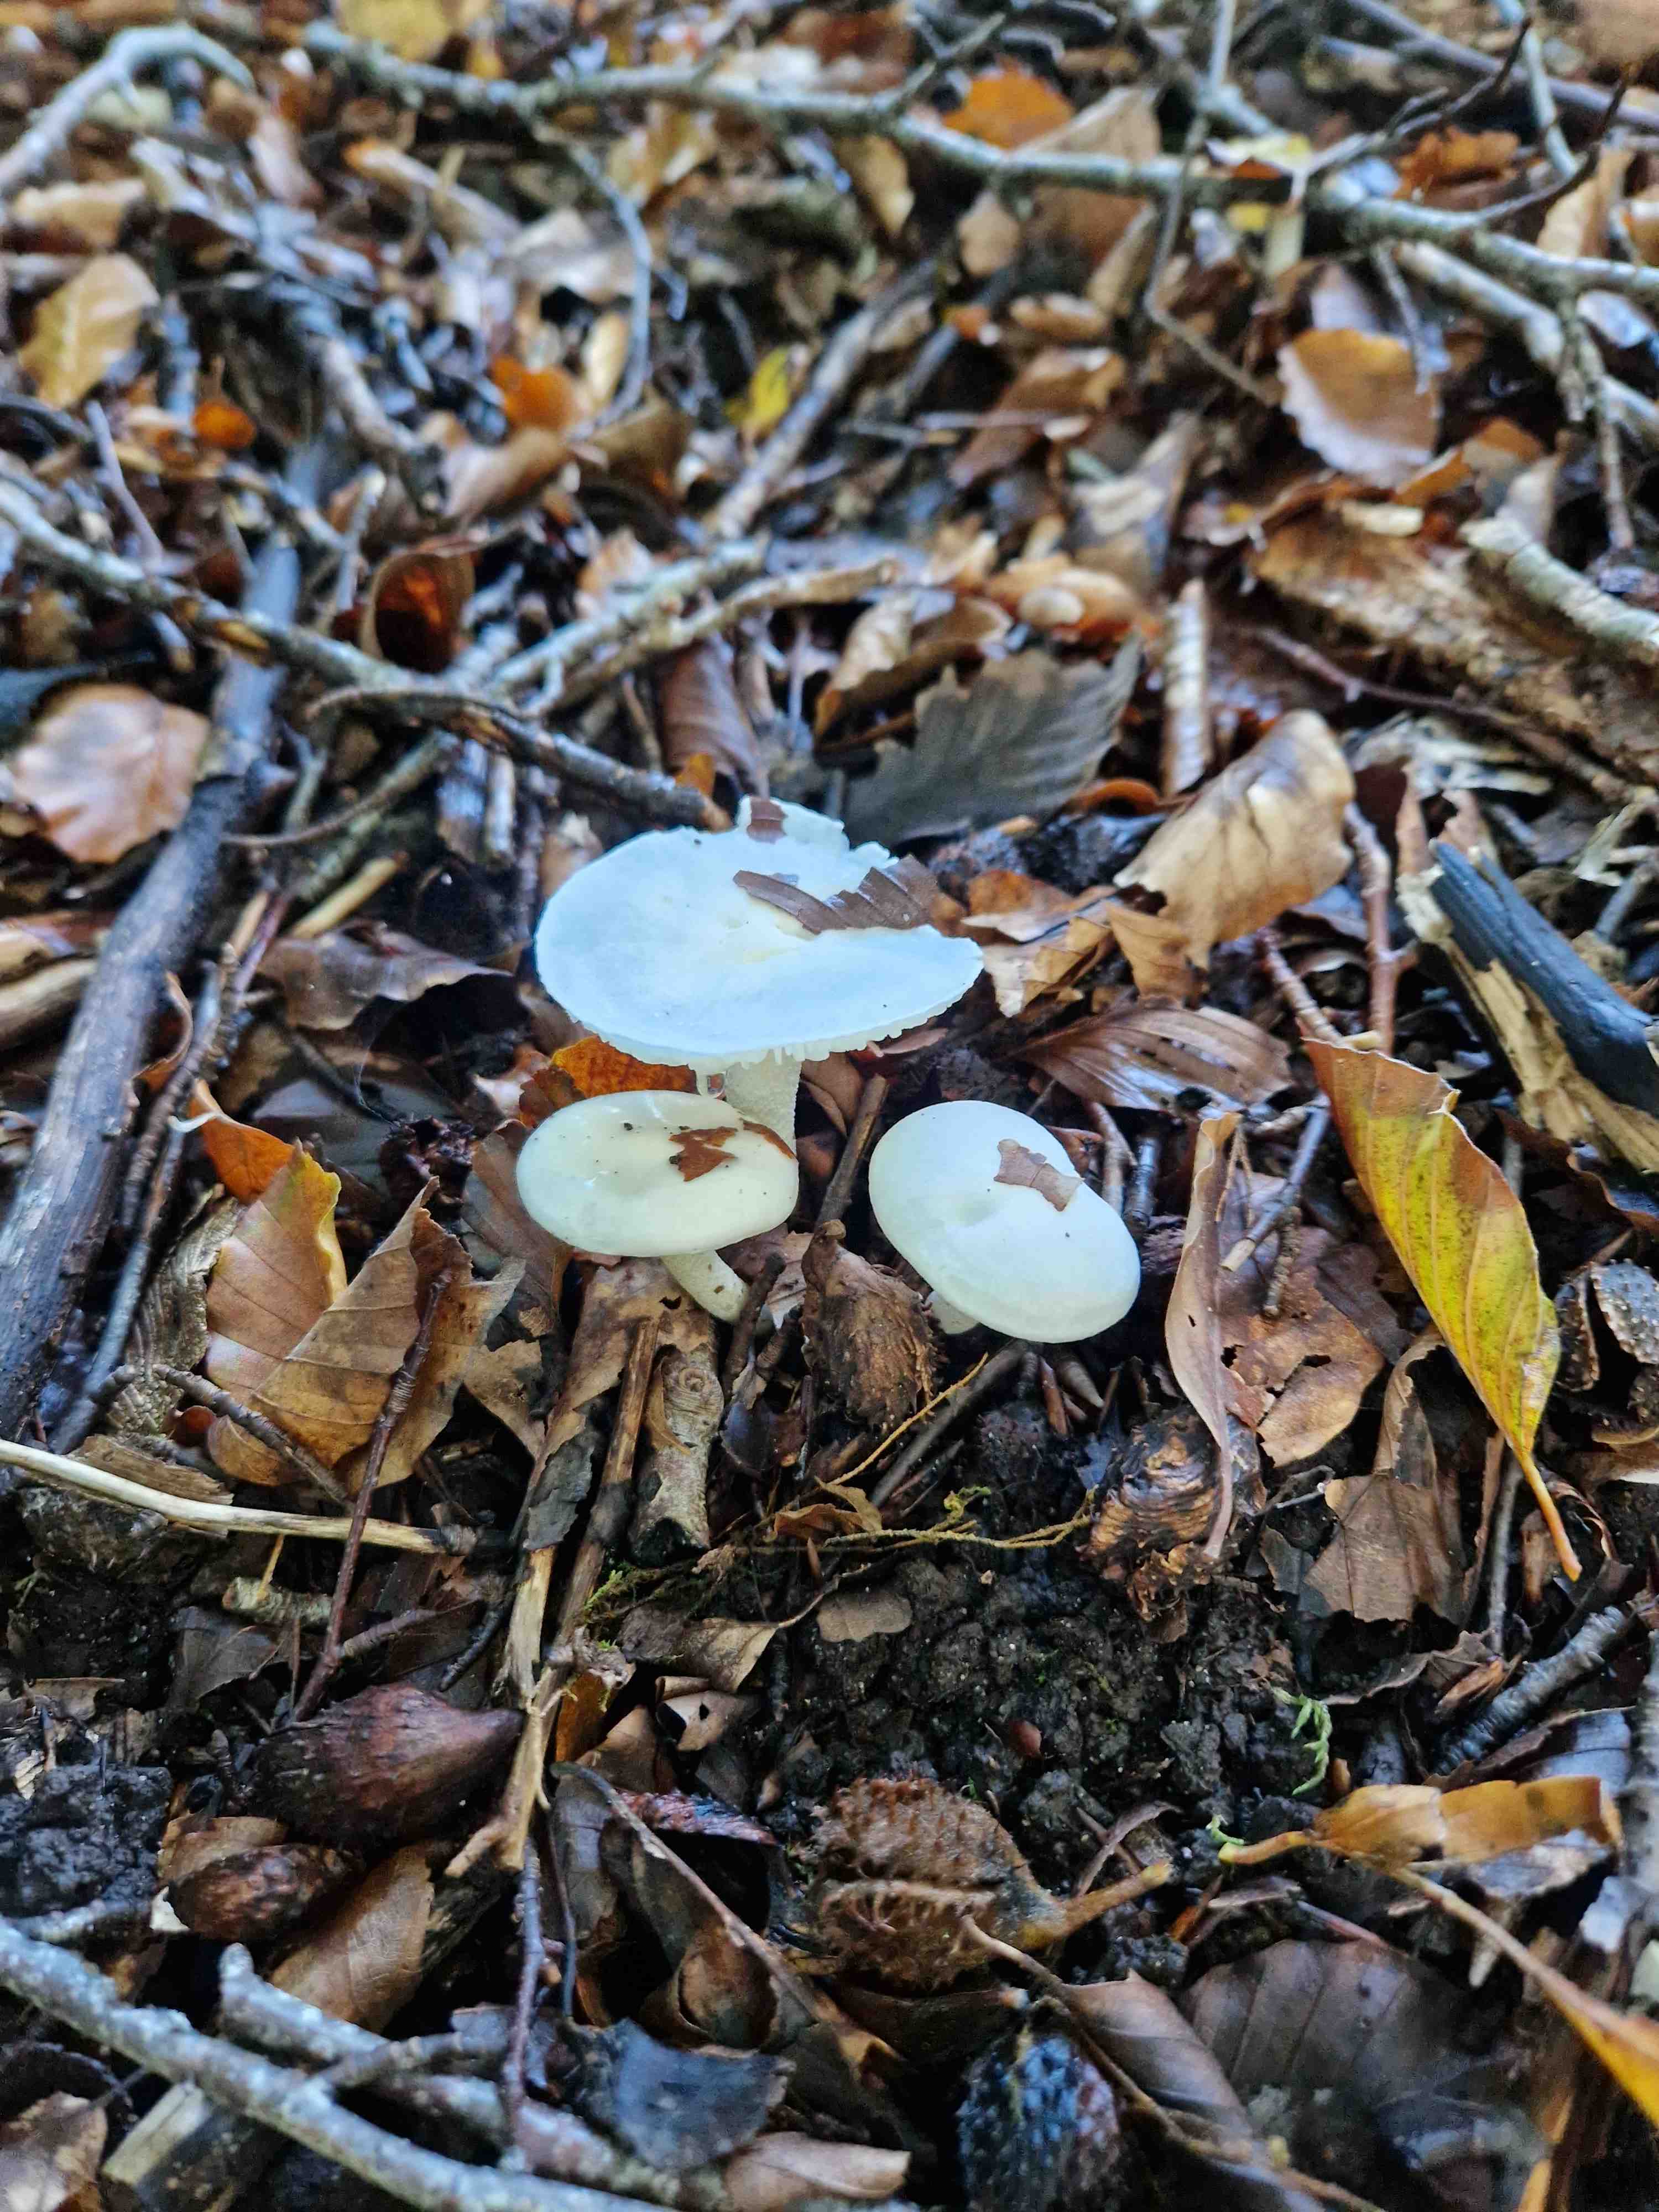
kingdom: Fungi
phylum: Basidiomycota
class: Agaricomycetes
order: Agaricales
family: Hygrophoraceae
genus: Hygrophorus
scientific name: Hygrophorus discoxanthus
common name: ildelugtende sneglehat
